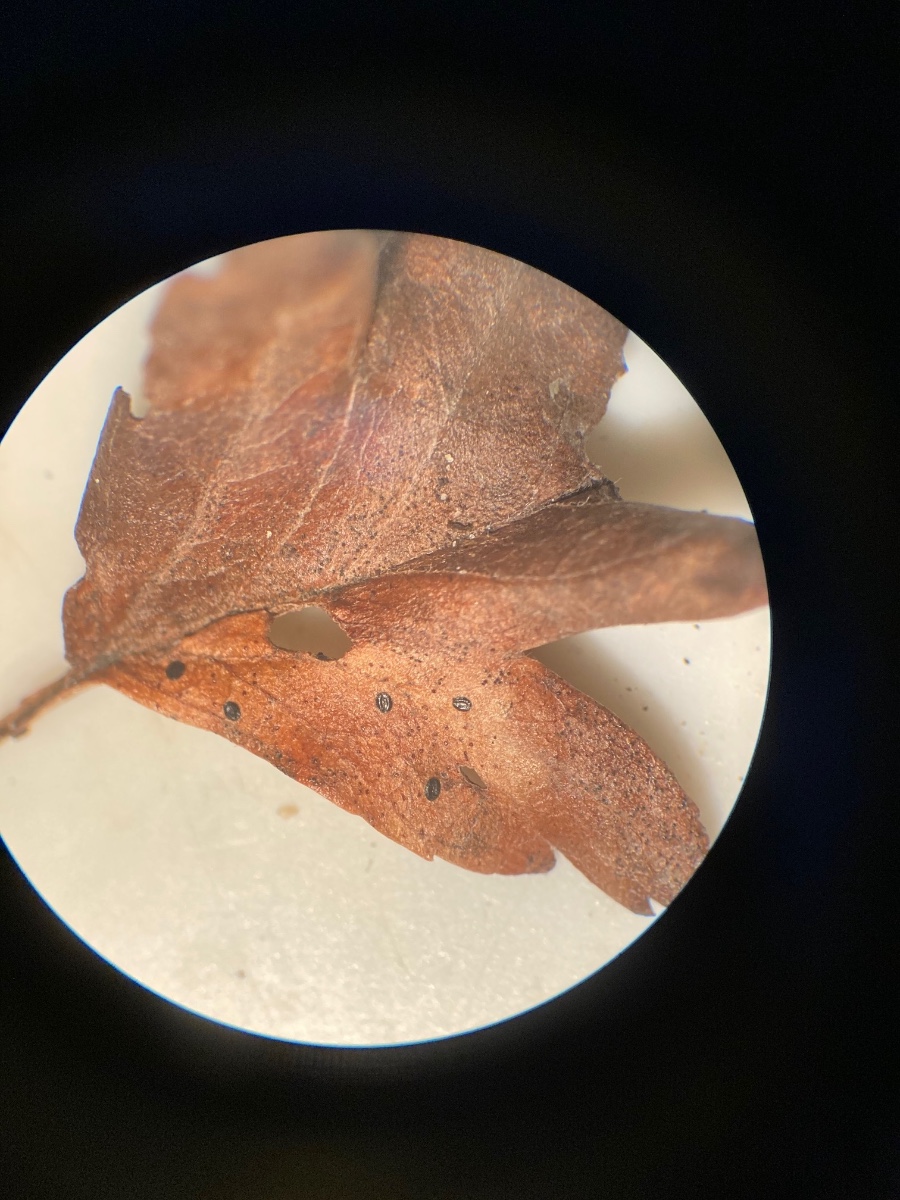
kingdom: Fungi
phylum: Ascomycota
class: Leotiomycetes
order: Rhytismatales
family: Rhytismataceae
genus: Lophodermium
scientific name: Lophodermium foliicola
